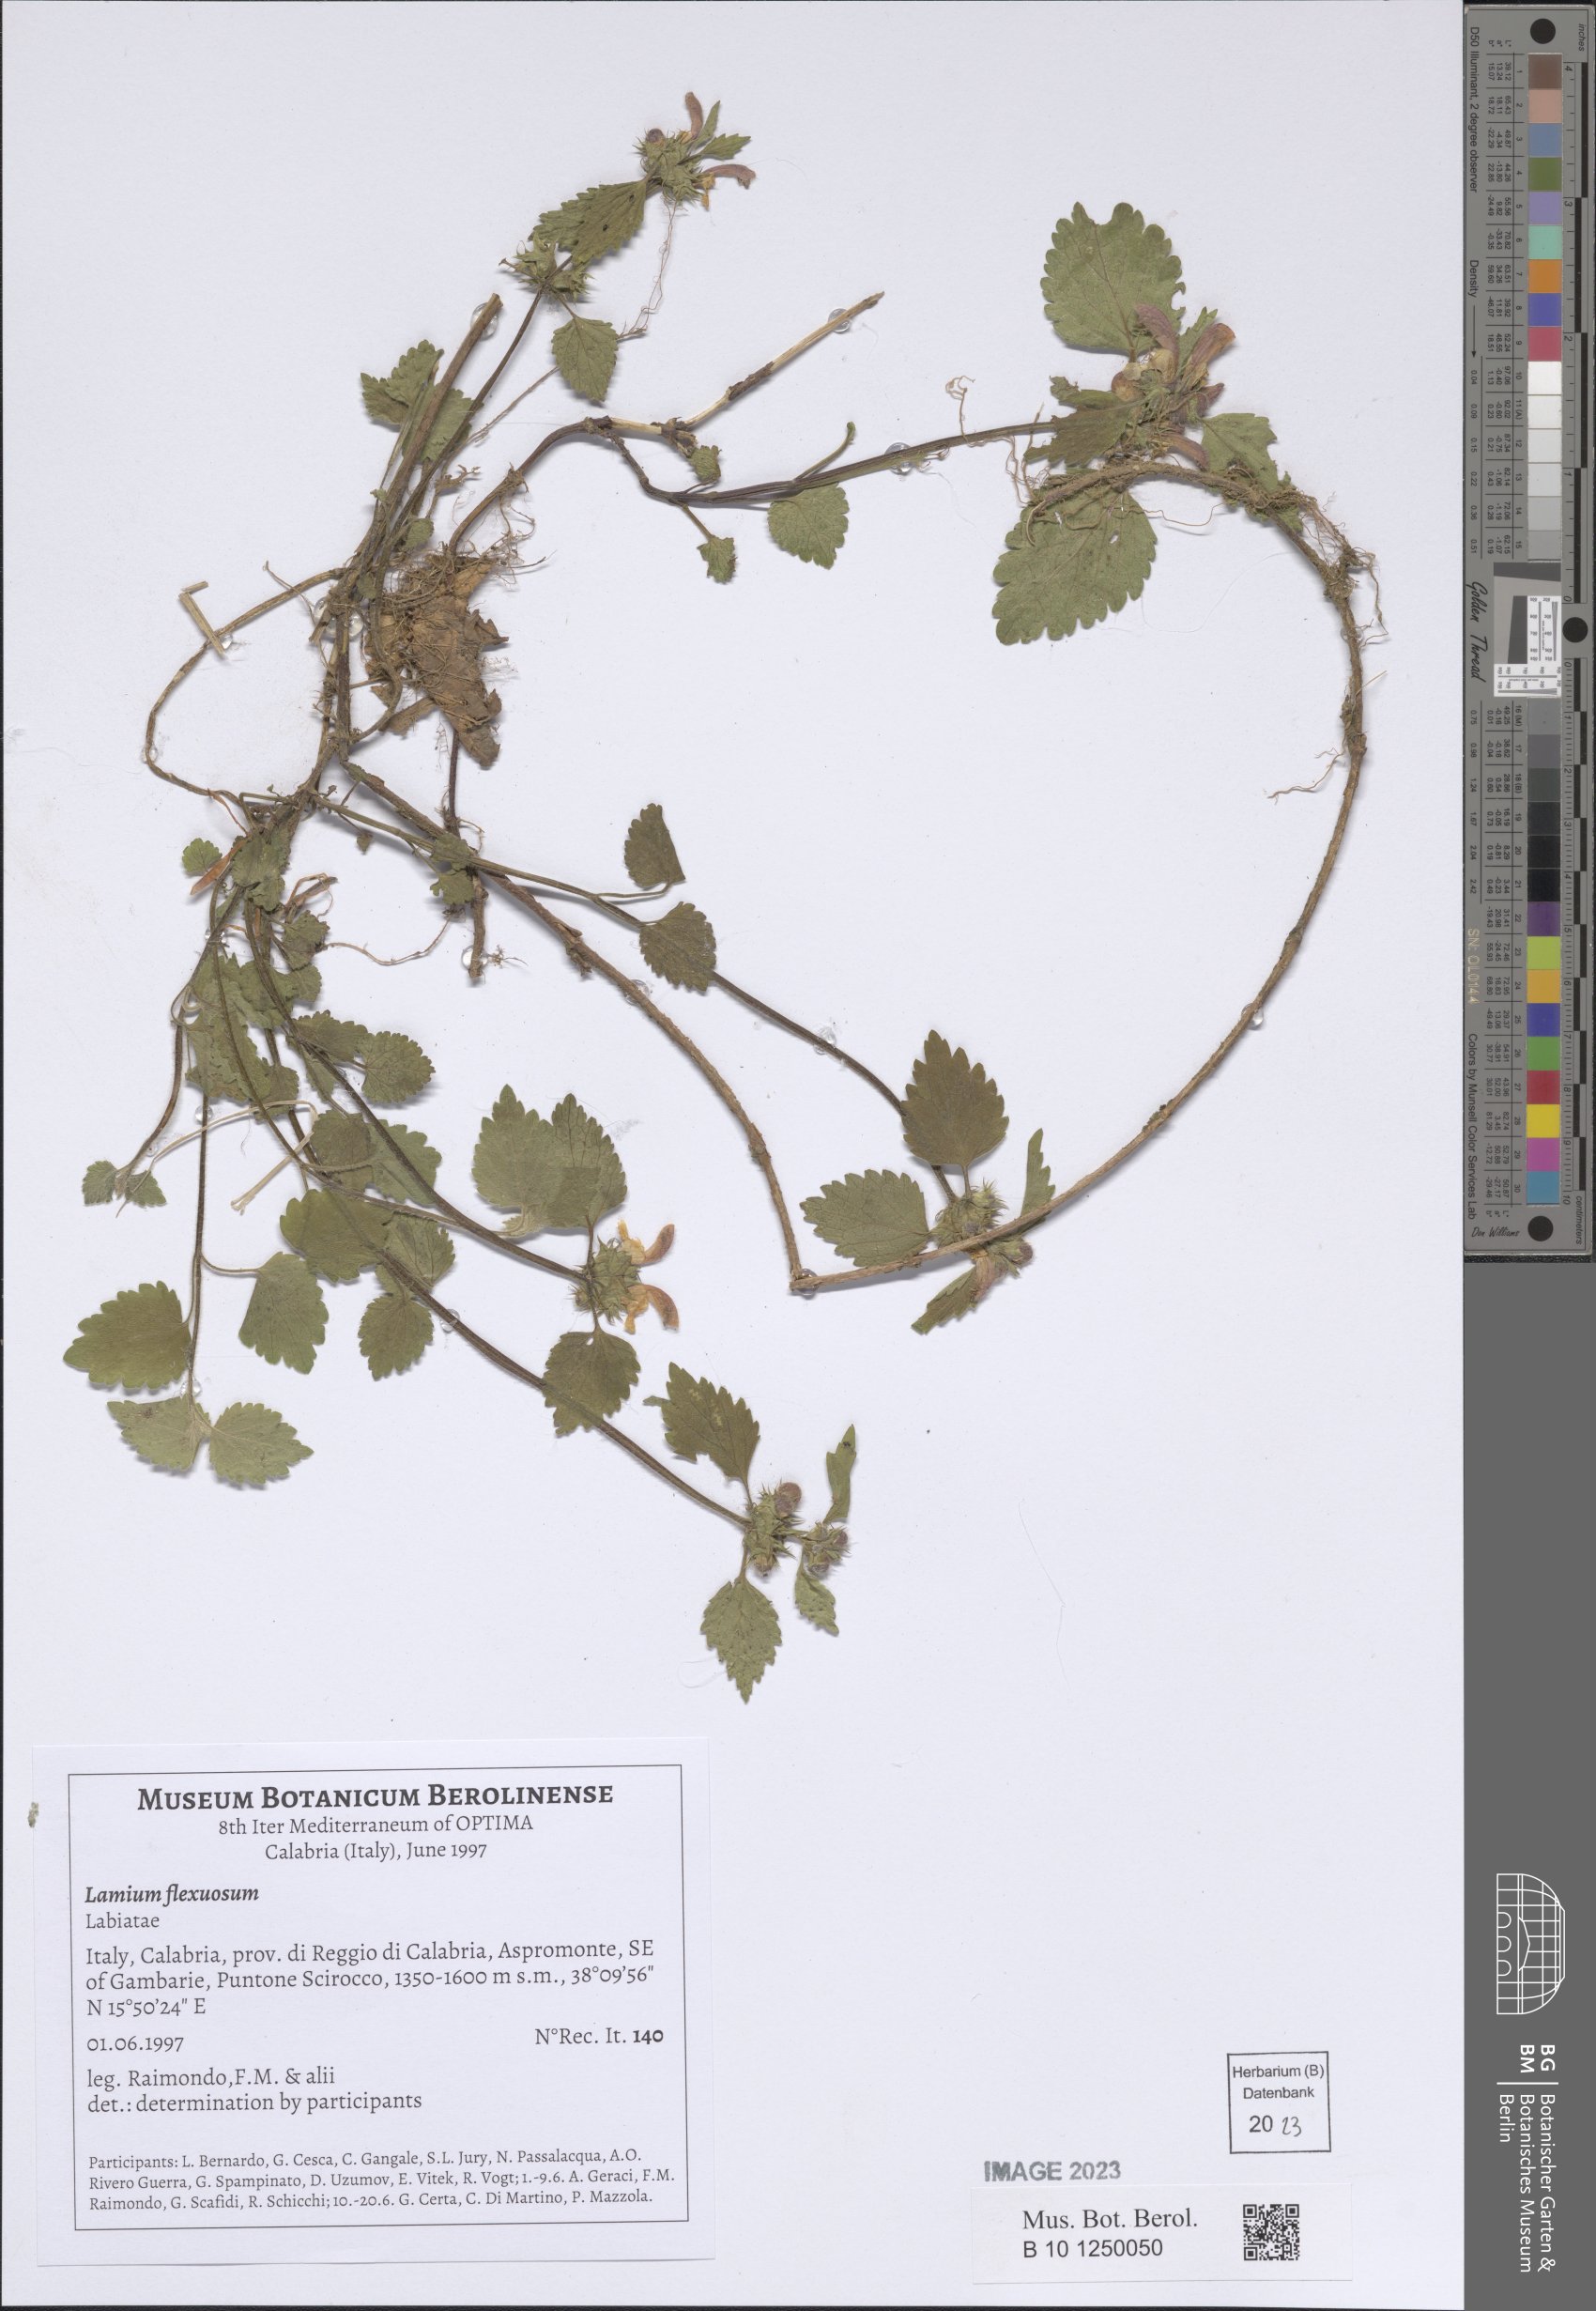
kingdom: Plantae
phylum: Tracheophyta
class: Magnoliopsida
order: Lamiales
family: Lamiaceae
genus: Lamium
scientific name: Lamium flexuosum
